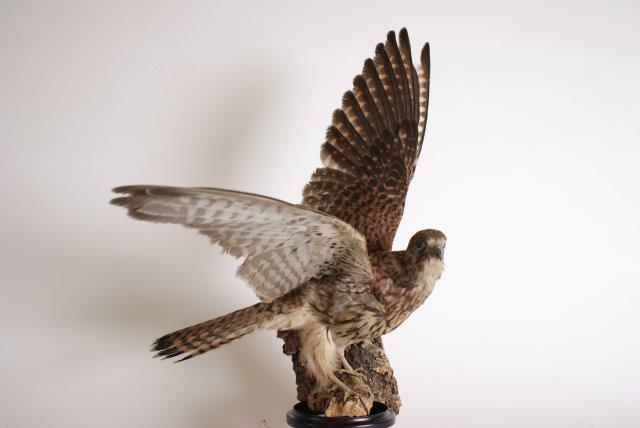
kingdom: Animalia
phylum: Chordata
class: Aves
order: Falconiformes
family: Falconidae
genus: Falco
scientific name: Falco tinnunculus
